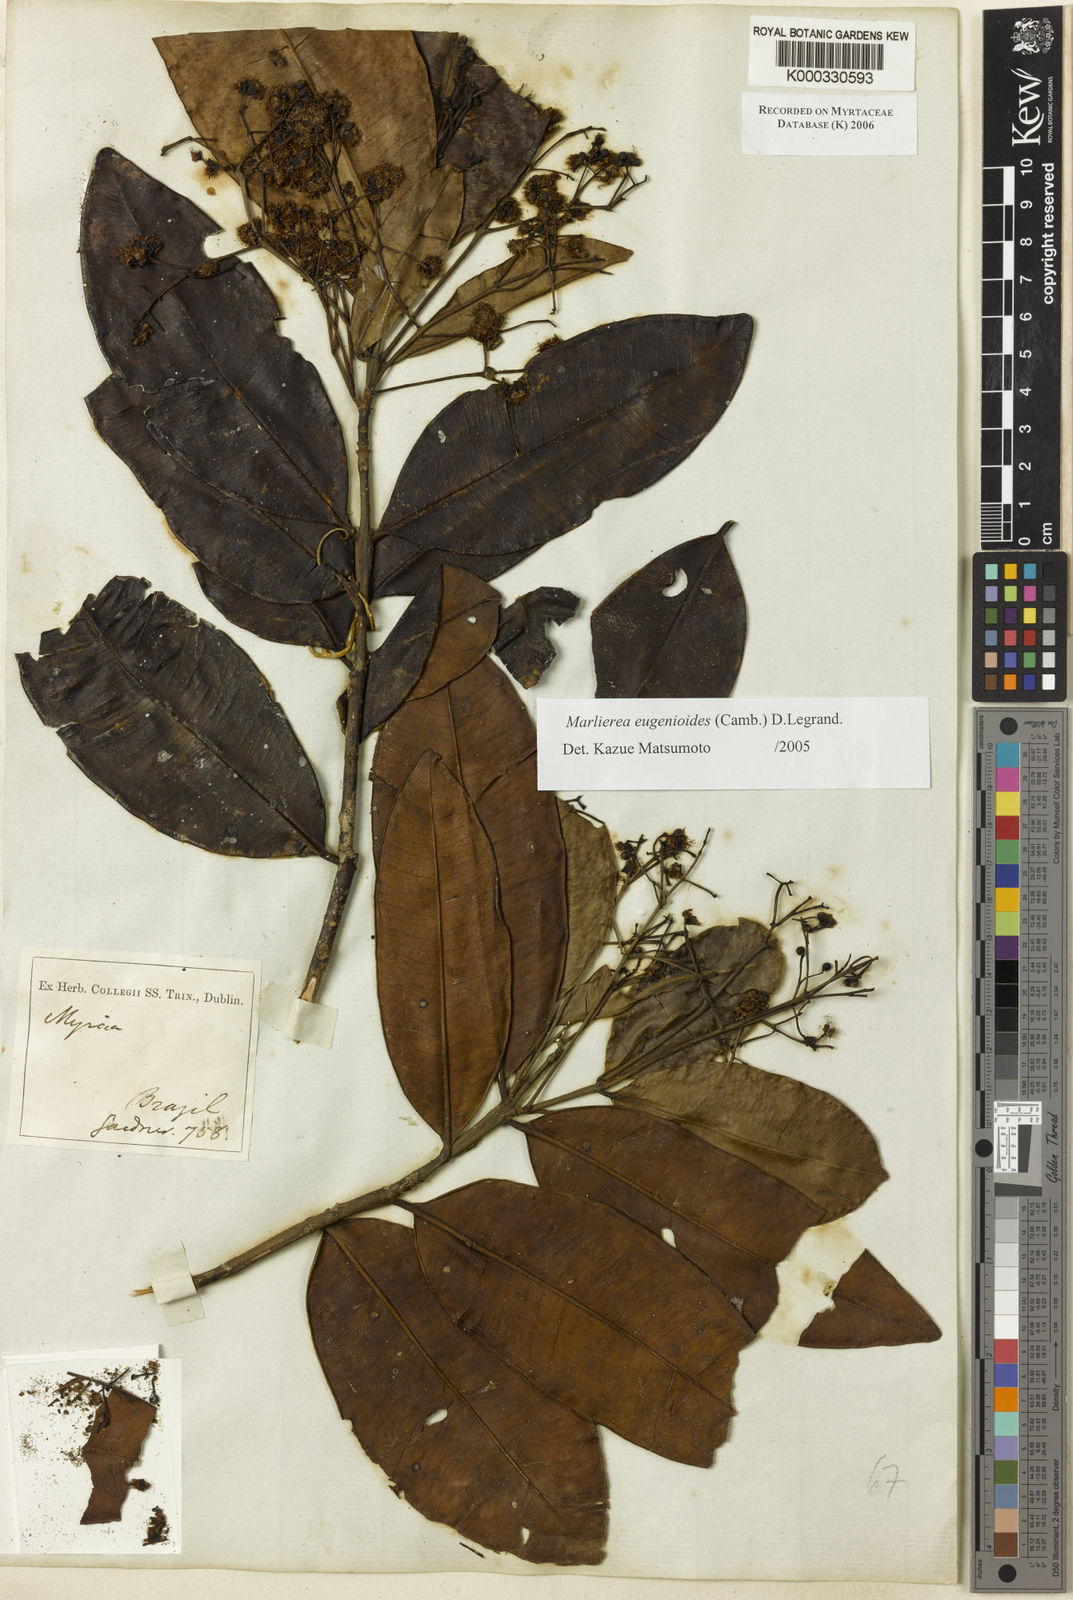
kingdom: Plantae
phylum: Tracheophyta
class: Magnoliopsida
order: Myrtales
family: Myrtaceae
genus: Myrcia
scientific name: Myrcia eugenioides
